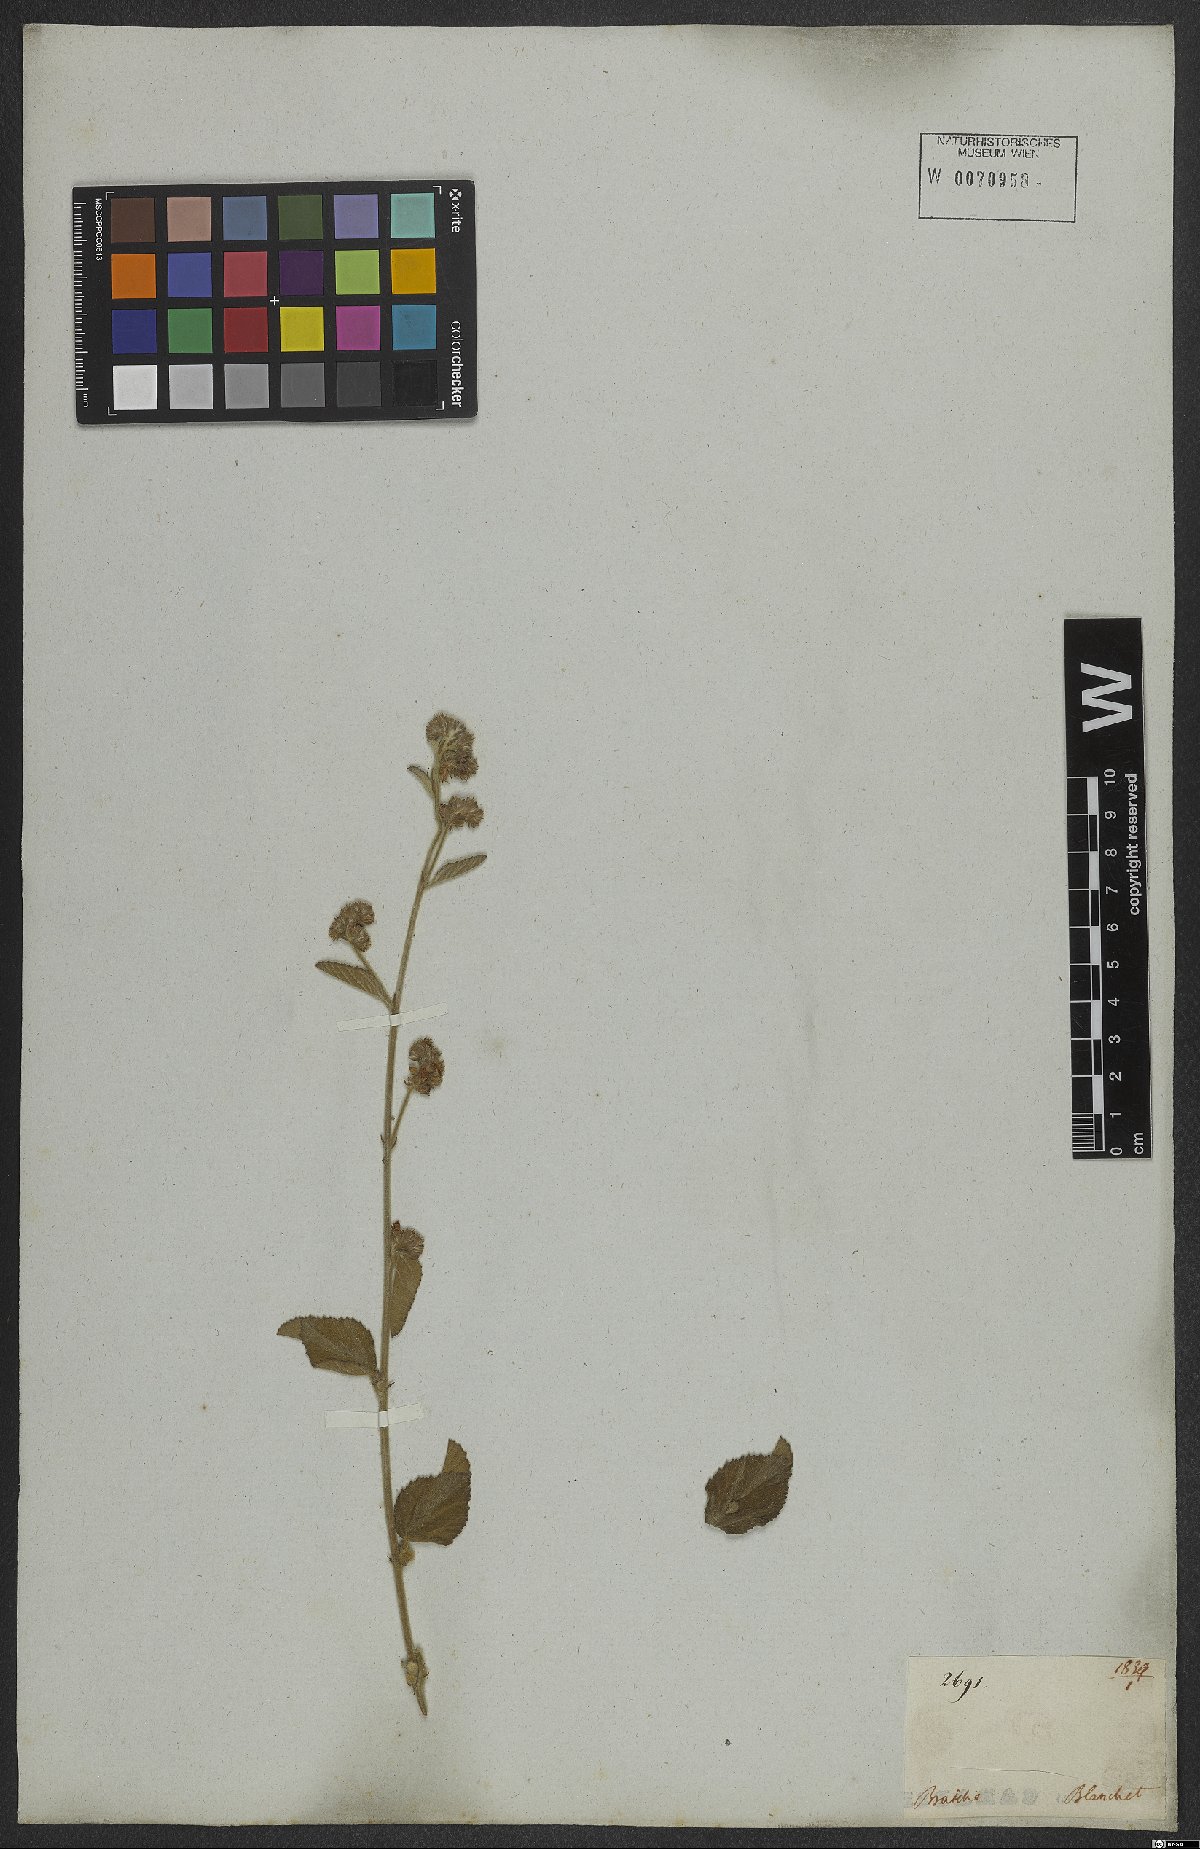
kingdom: Plantae
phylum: Tracheophyta
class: Magnoliopsida
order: Malvales
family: Malvaceae
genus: Waltheria
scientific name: Waltheria indica
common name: Leather-coat
